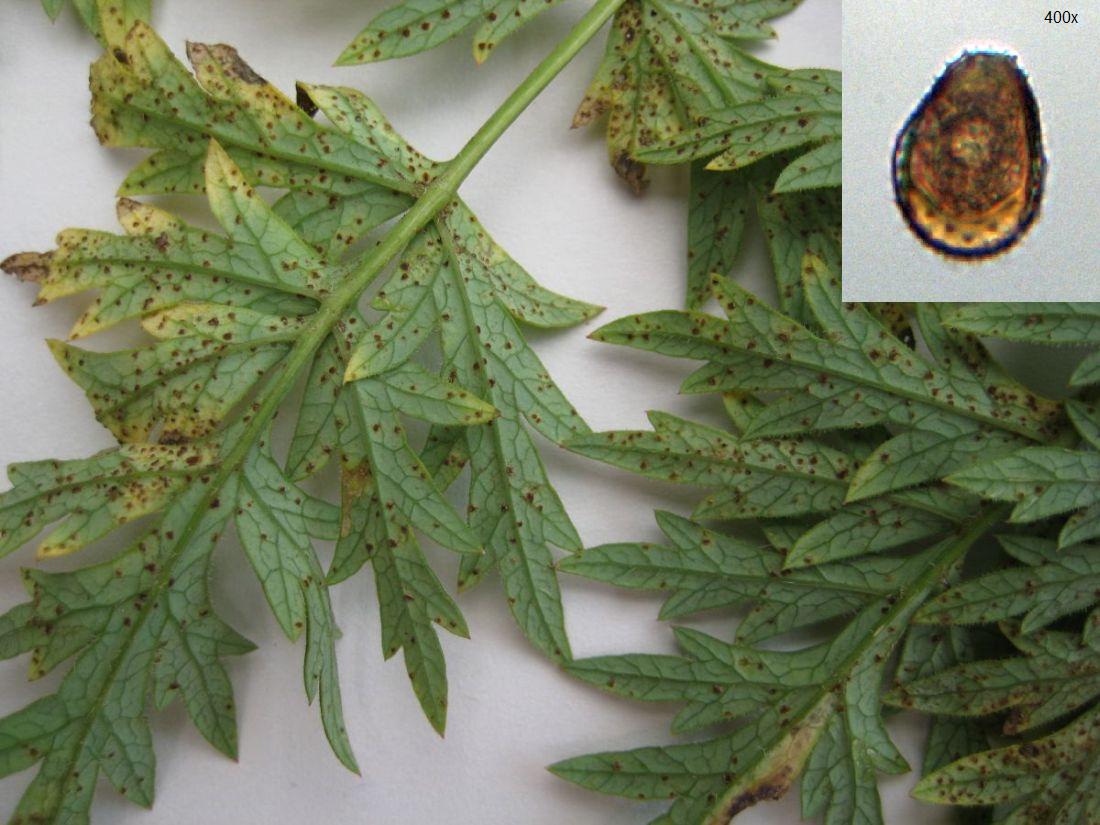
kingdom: Fungi
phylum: Basidiomycota
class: Pucciniomycetes
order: Pucciniales
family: Pucciniaceae
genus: Puccinia
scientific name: Puccinia libanotidis
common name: Moon carrot rust
